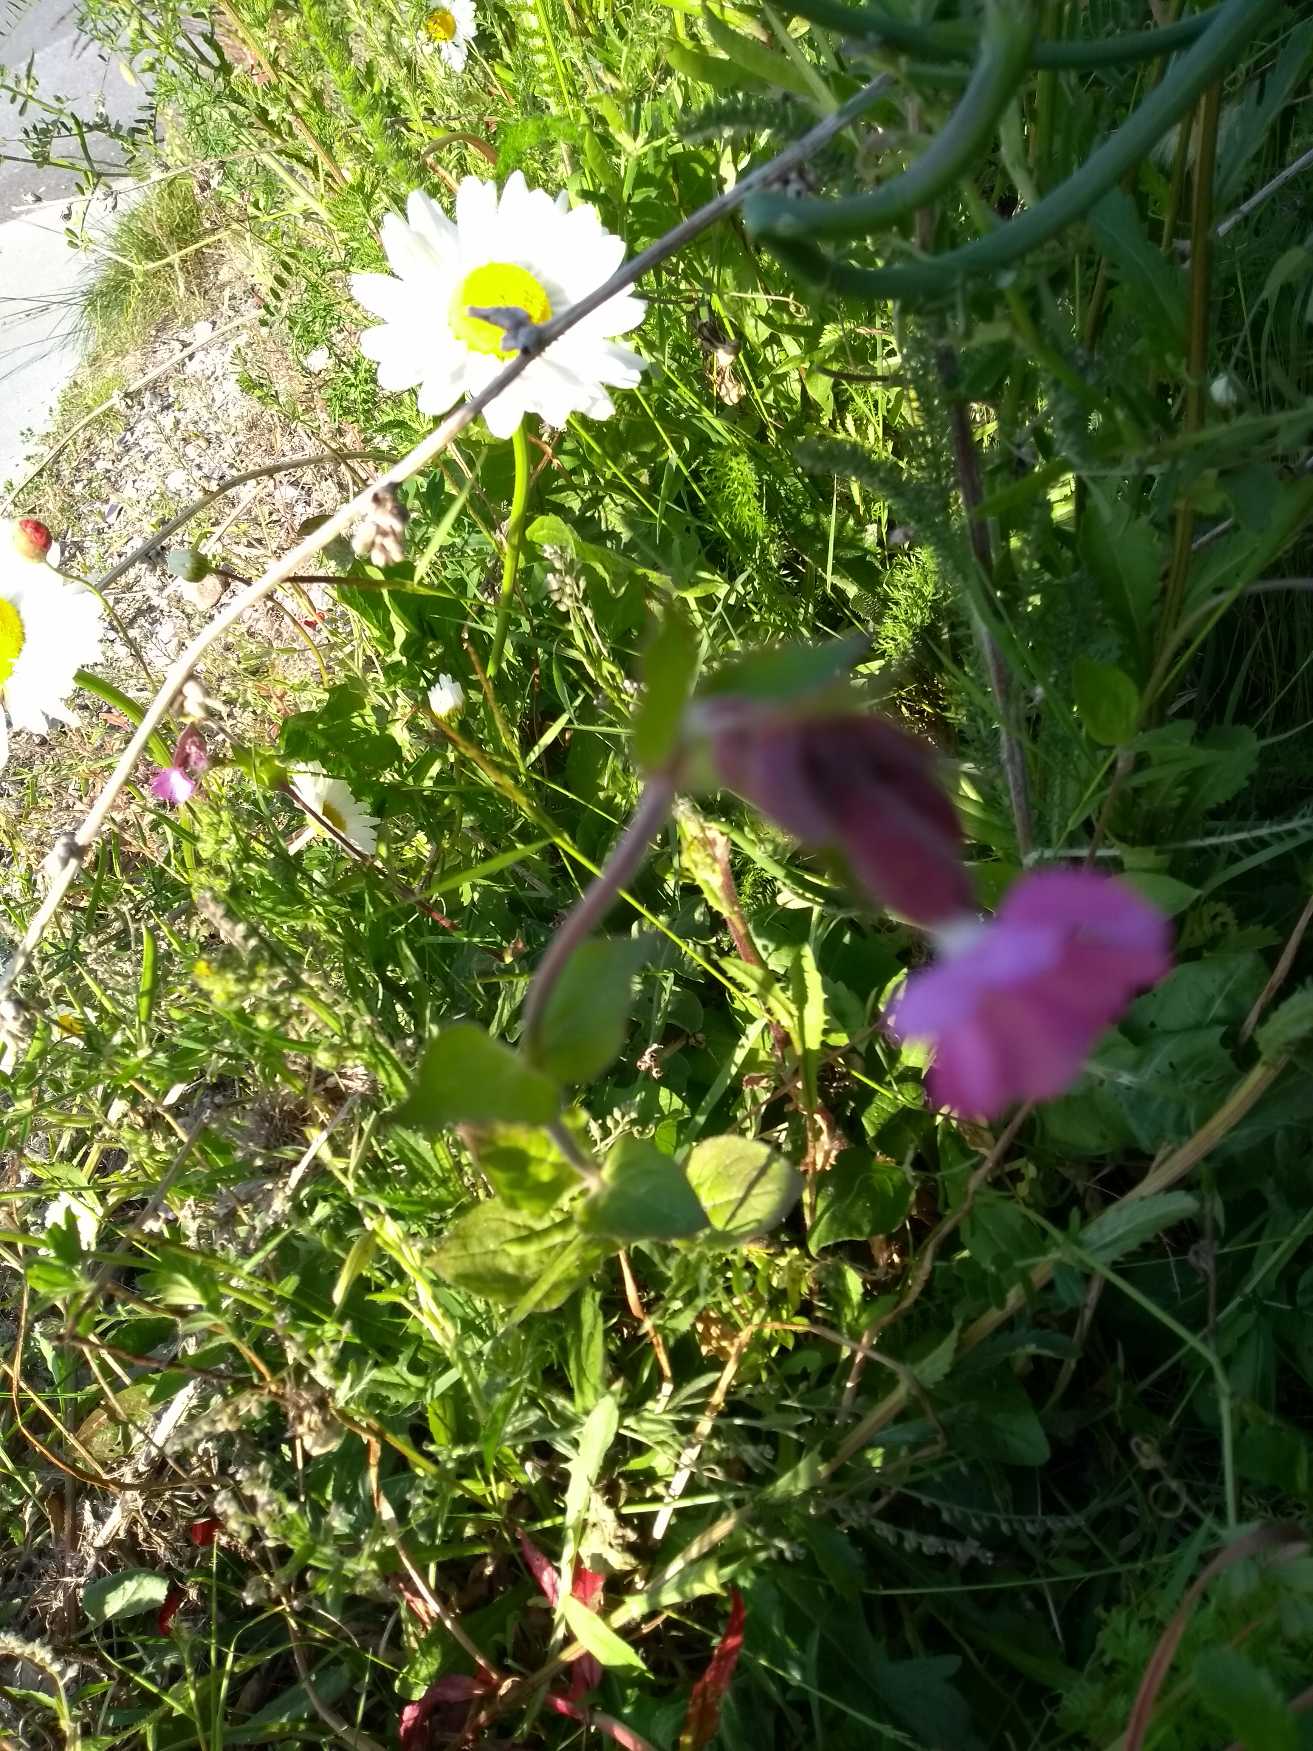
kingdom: Plantae
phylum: Tracheophyta
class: Magnoliopsida
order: Caryophyllales
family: Caryophyllaceae
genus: Silene
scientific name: Silene dioica
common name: Dagpragtstjerne
